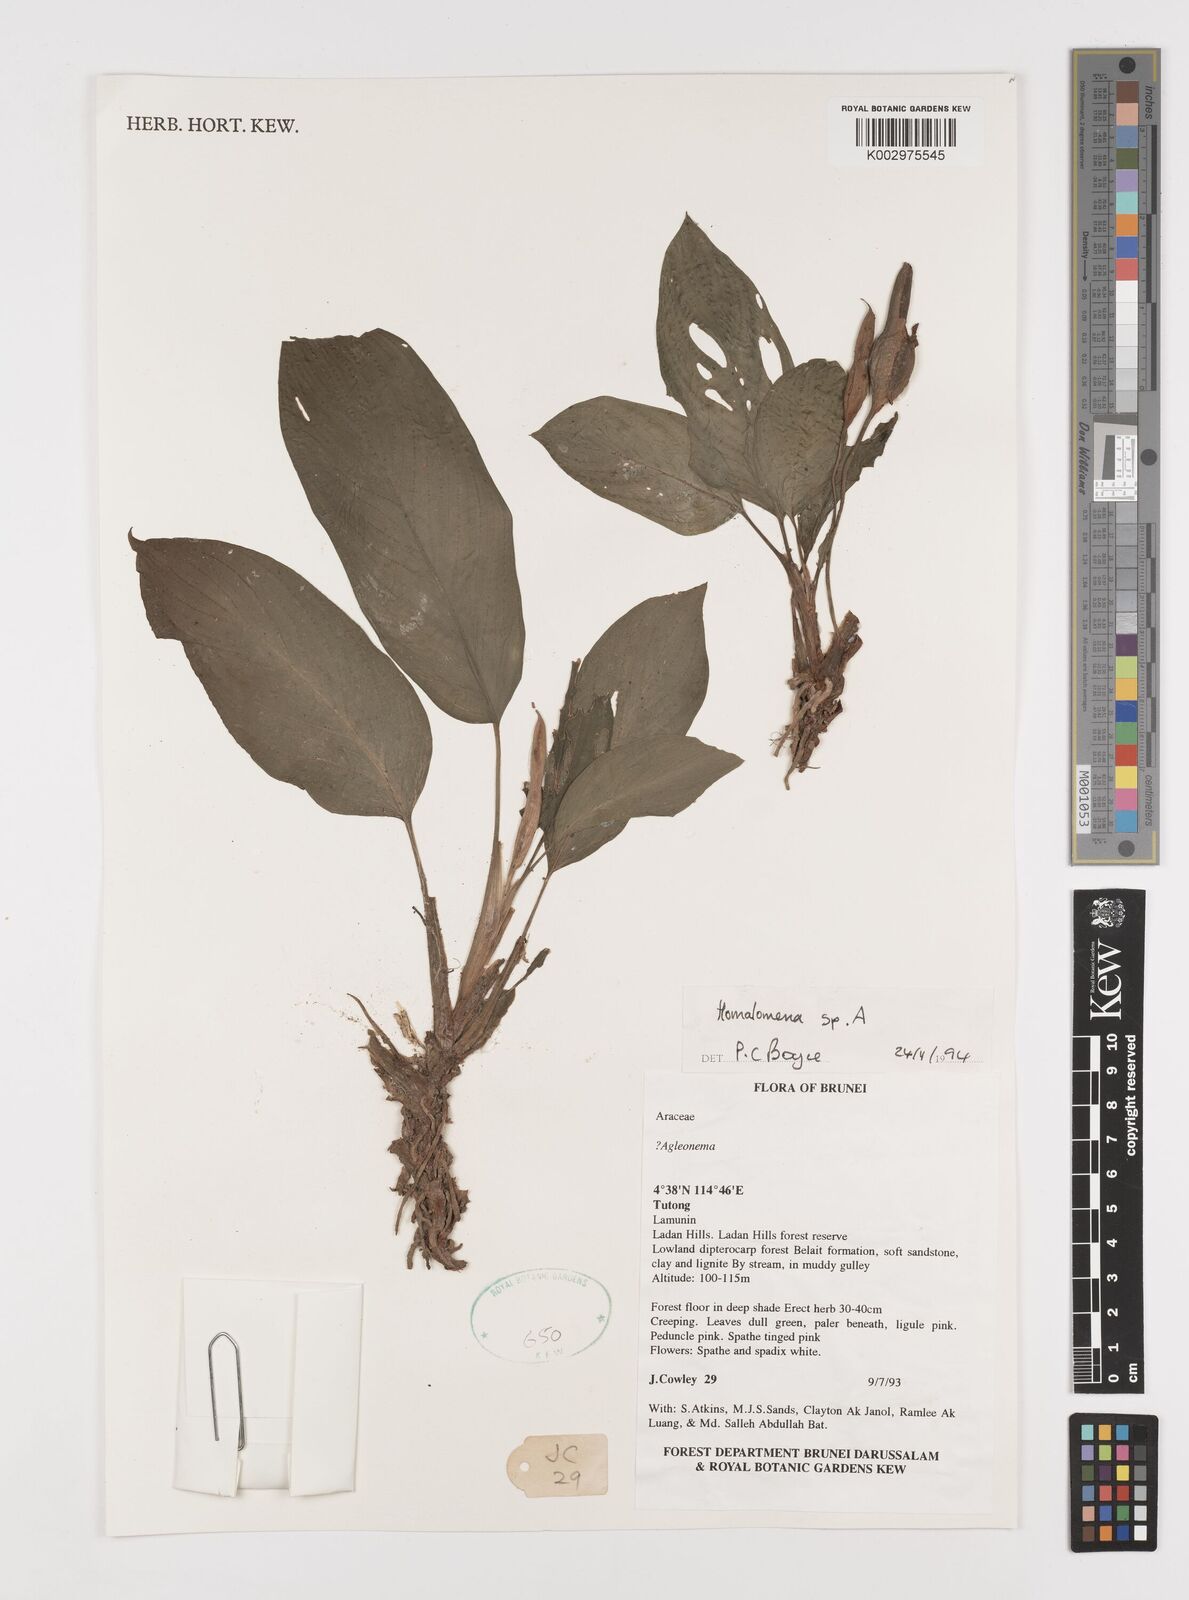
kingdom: Plantae
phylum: Tracheophyta
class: Liliopsida
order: Alismatales
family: Araceae
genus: Homalomena
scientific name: Homalomena
